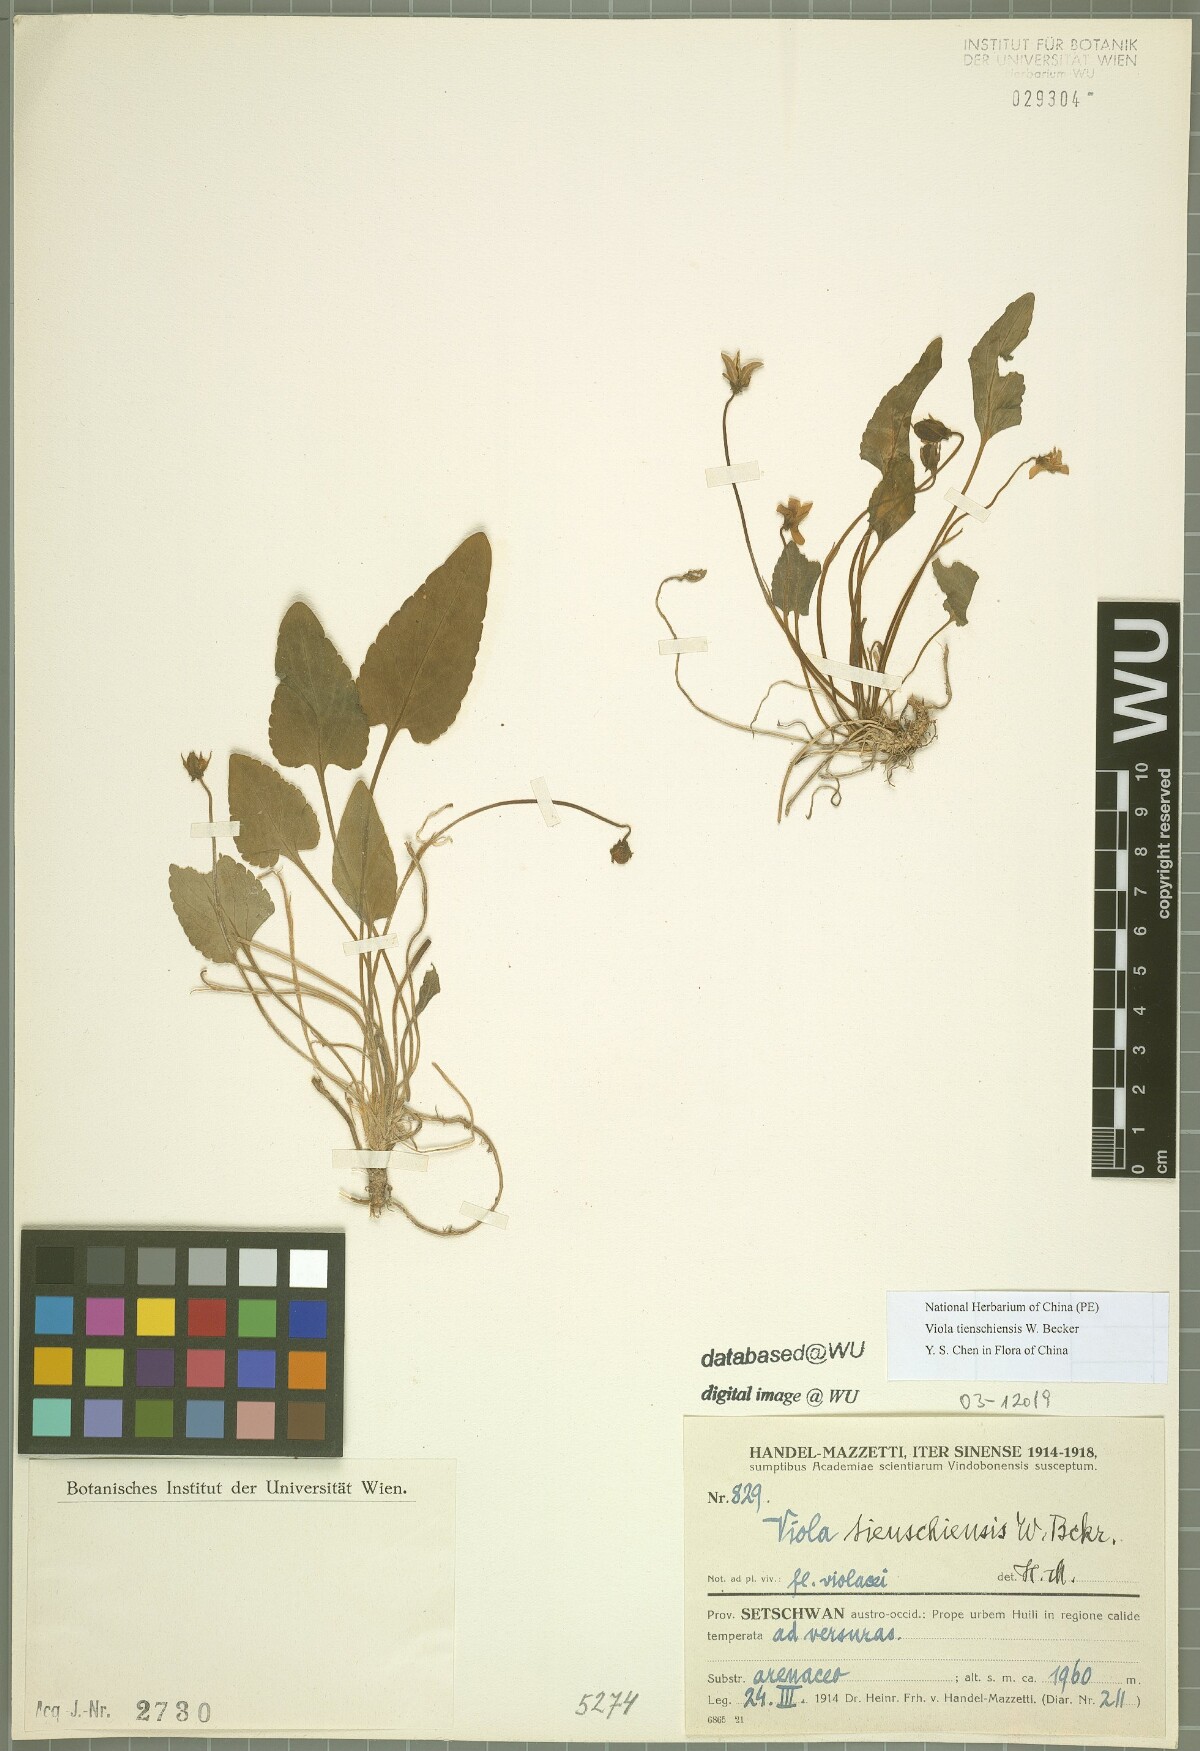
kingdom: Plantae
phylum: Tracheophyta
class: Magnoliopsida
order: Malpighiales
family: Violaceae
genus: Viola
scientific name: Viola tienschiensis
